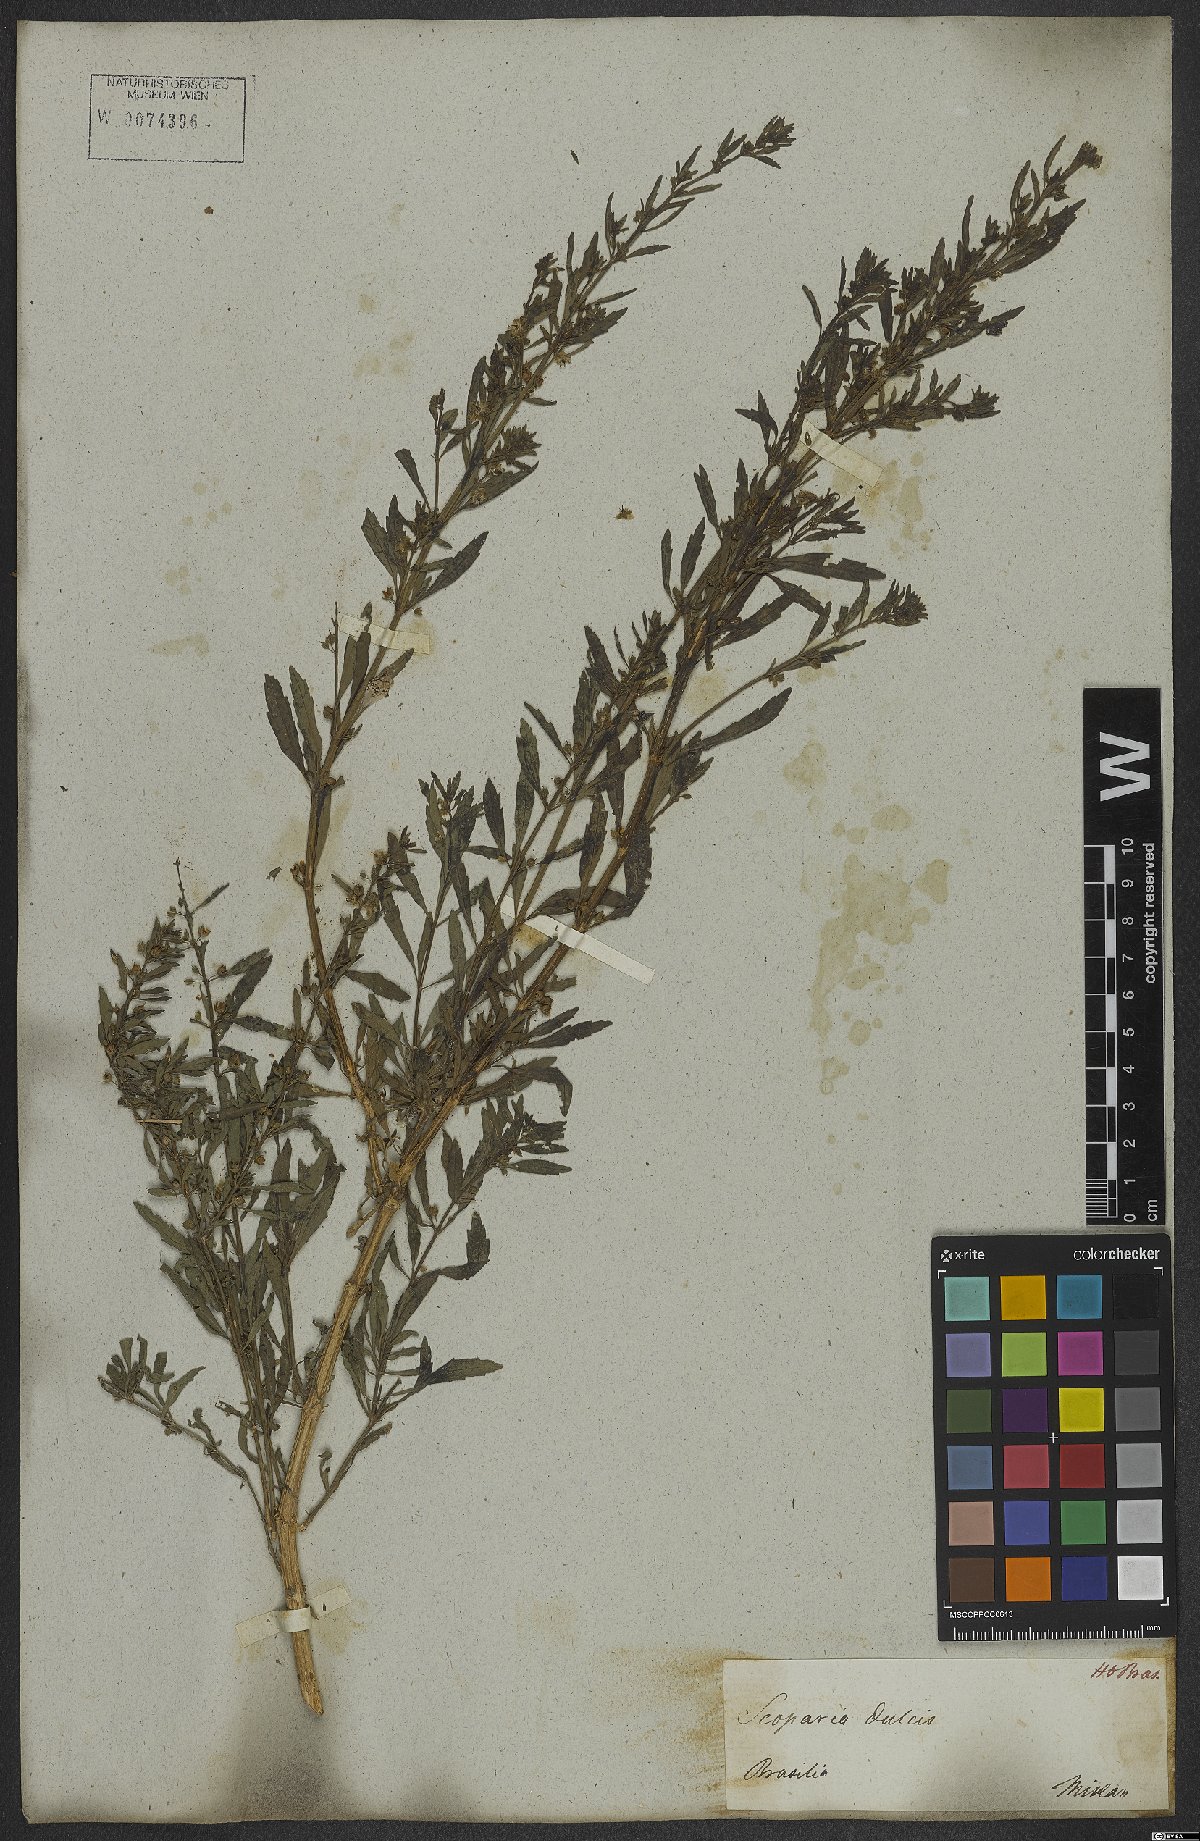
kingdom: Plantae
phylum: Tracheophyta
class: Magnoliopsida
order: Lamiales
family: Plantaginaceae
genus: Scoparia
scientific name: Scoparia dulcis
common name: Scoparia-weed
